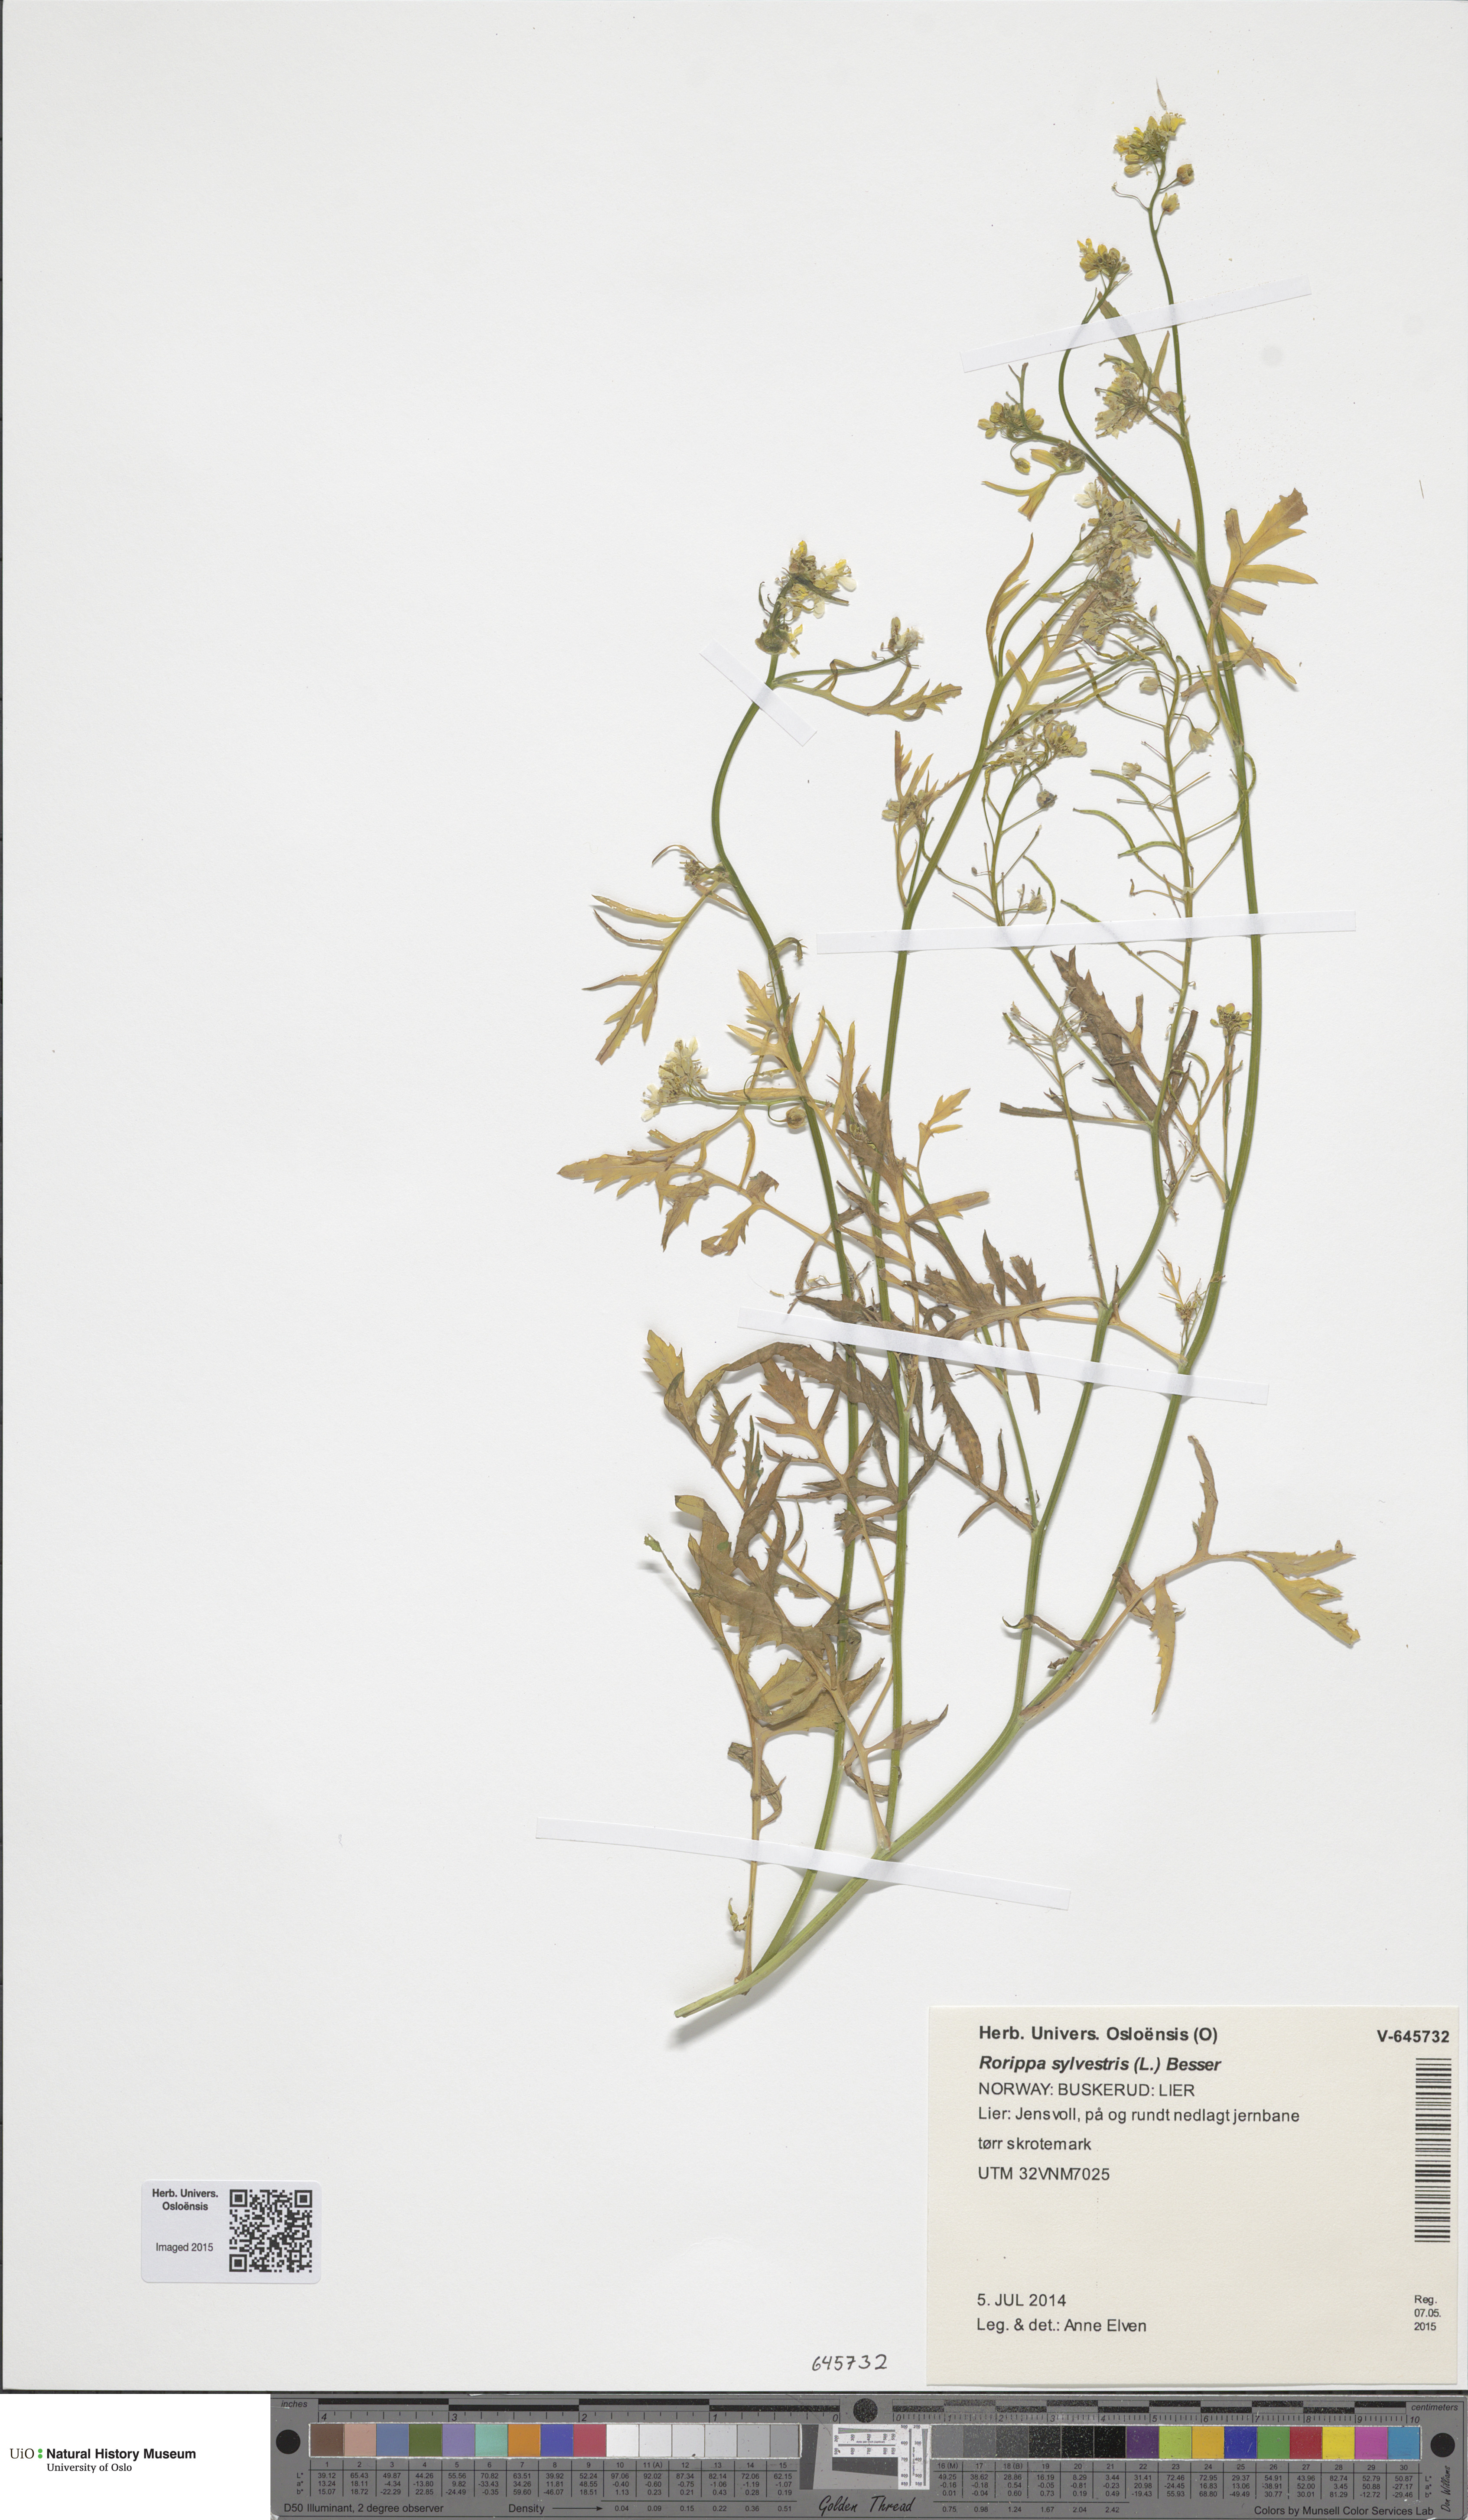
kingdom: Plantae
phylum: Tracheophyta
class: Magnoliopsida
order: Brassicales
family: Brassicaceae
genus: Rorippa
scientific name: Rorippa sylvestris
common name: Creeping yellowcress
